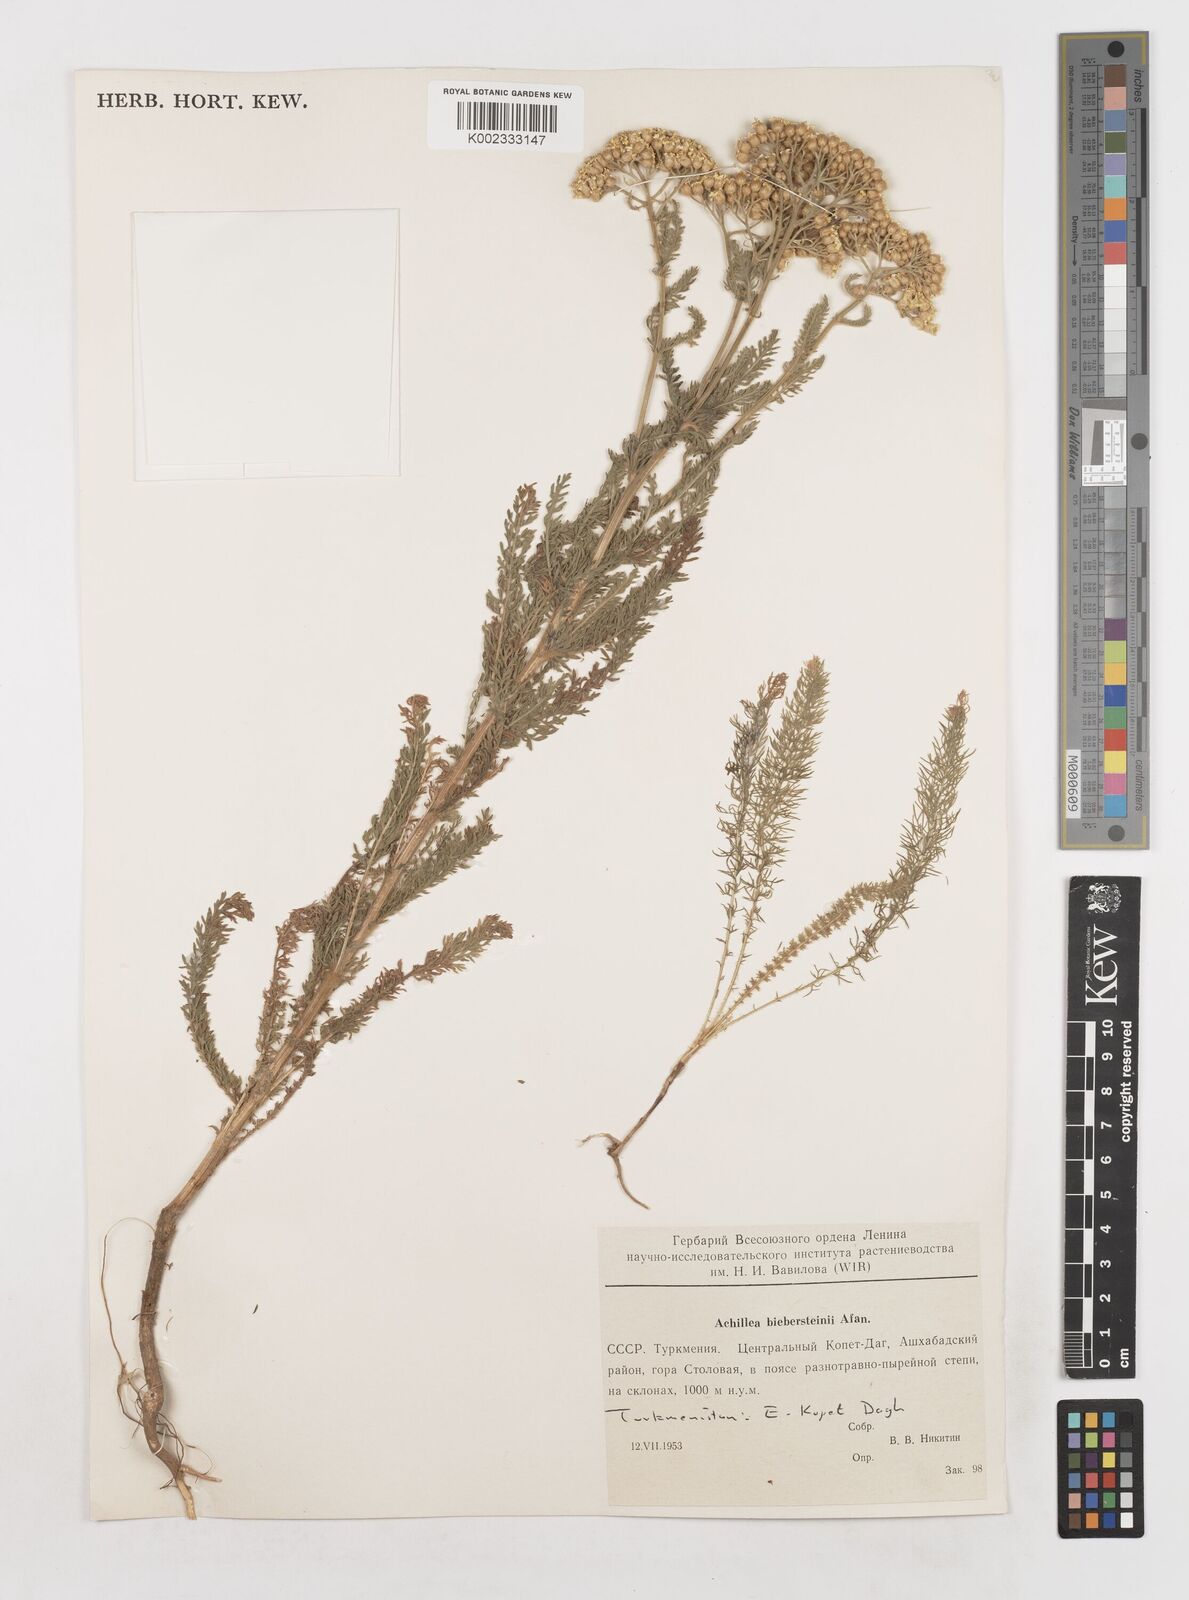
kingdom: Plantae
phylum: Tracheophyta
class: Magnoliopsida
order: Asterales
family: Asteraceae
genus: Achillea
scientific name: Achillea arabica
